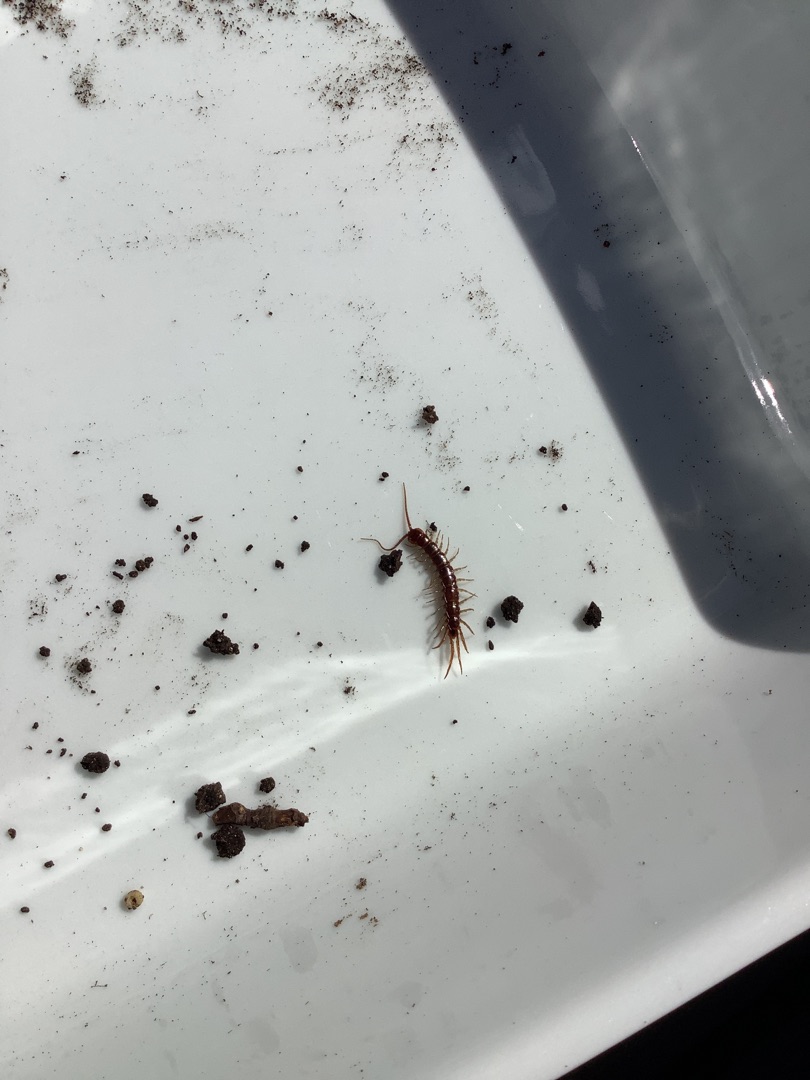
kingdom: Animalia
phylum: Arthropoda
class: Chilopoda
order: Lithobiomorpha
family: Lithobiidae
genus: Lithobius
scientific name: Lithobius forficatus
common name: Stenskolopender
